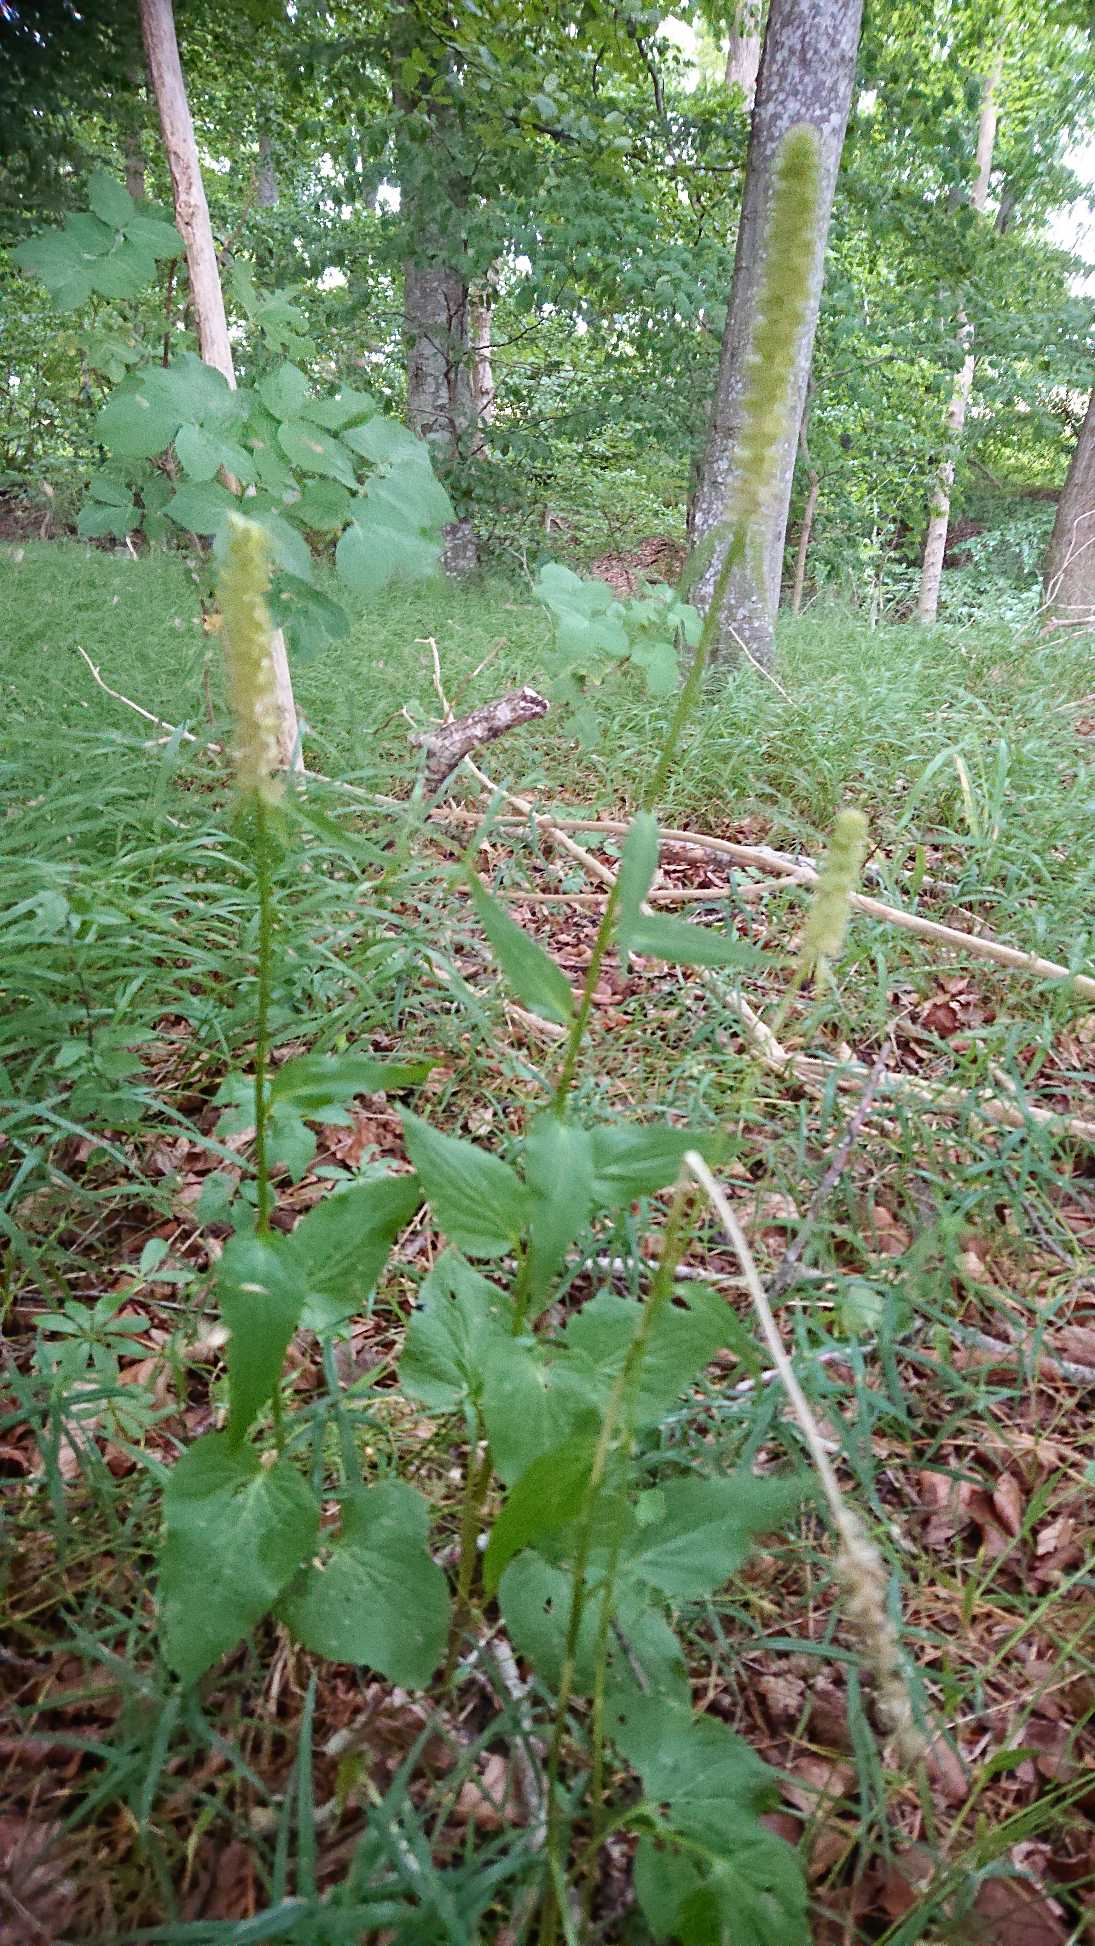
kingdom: Plantae
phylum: Tracheophyta
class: Magnoliopsida
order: Asterales
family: Campanulaceae
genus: Phyteuma
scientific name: Phyteuma spicatum
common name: Aks-rapunsel
